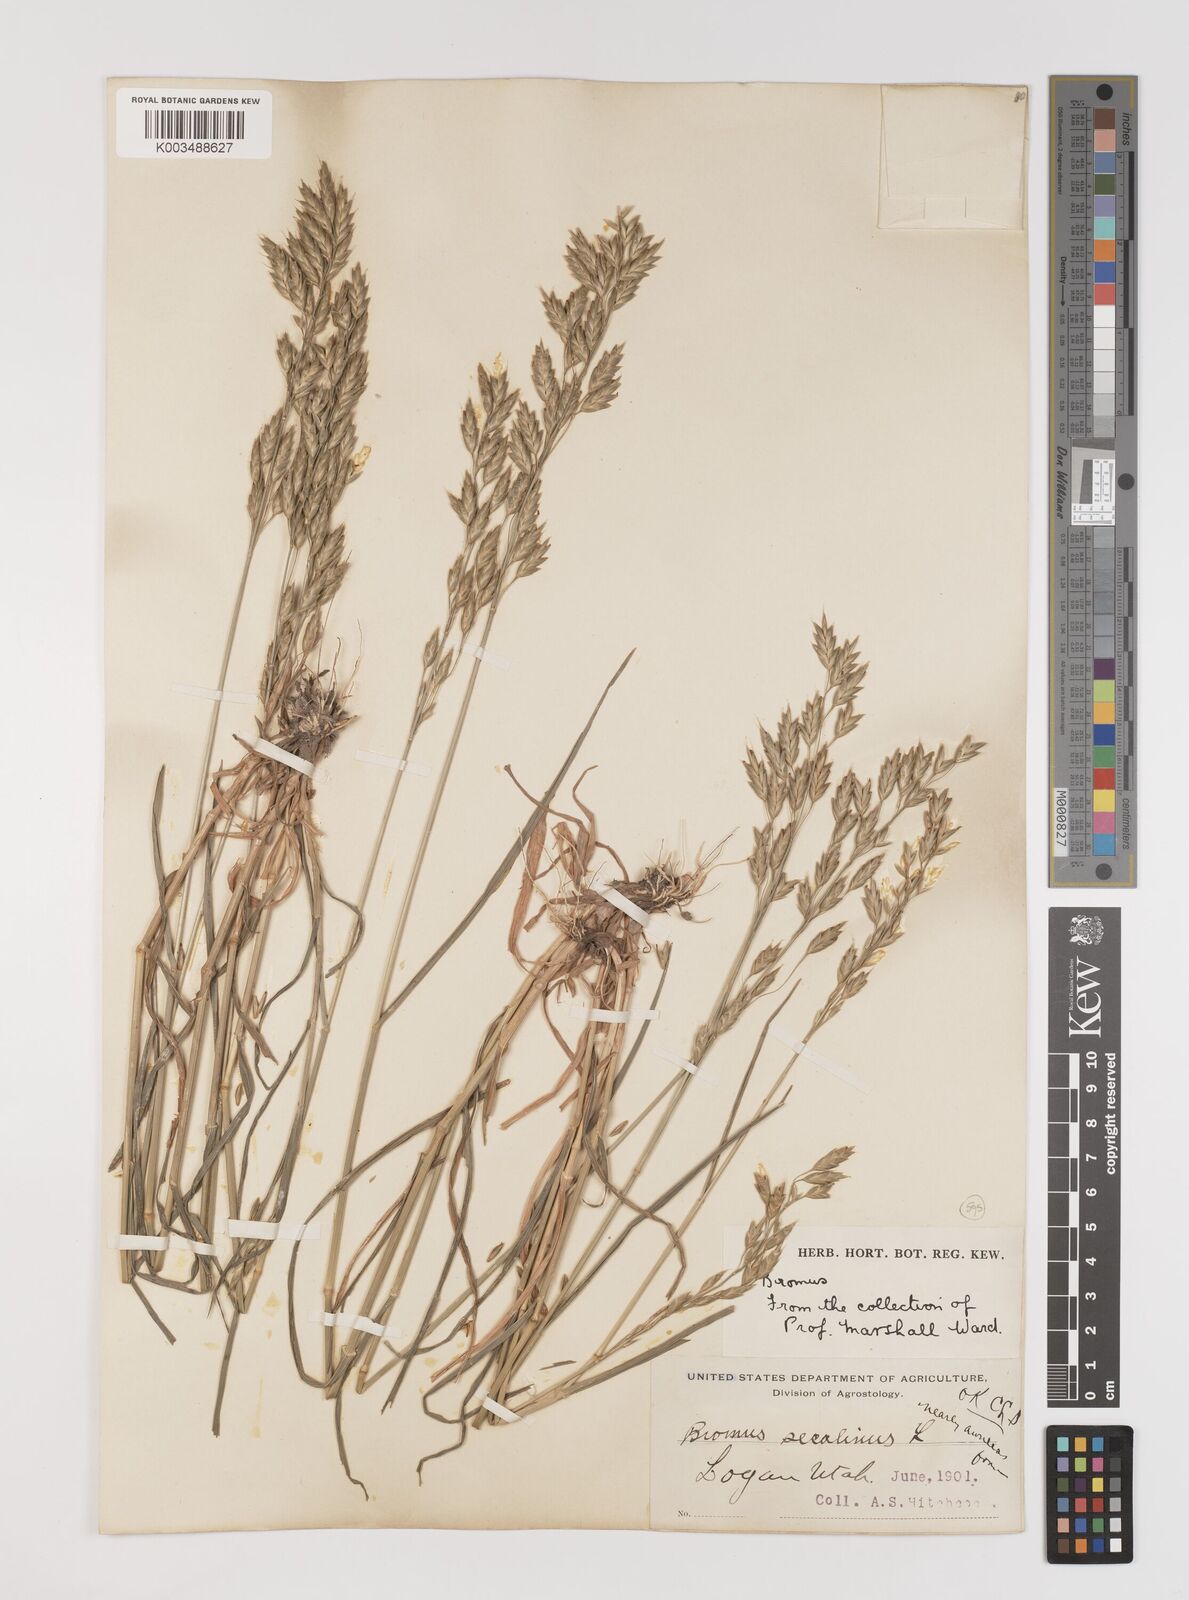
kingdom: Plantae
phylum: Tracheophyta
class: Liliopsida
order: Poales
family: Poaceae
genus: Bromus
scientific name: Bromus secalinus
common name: Rye brome
